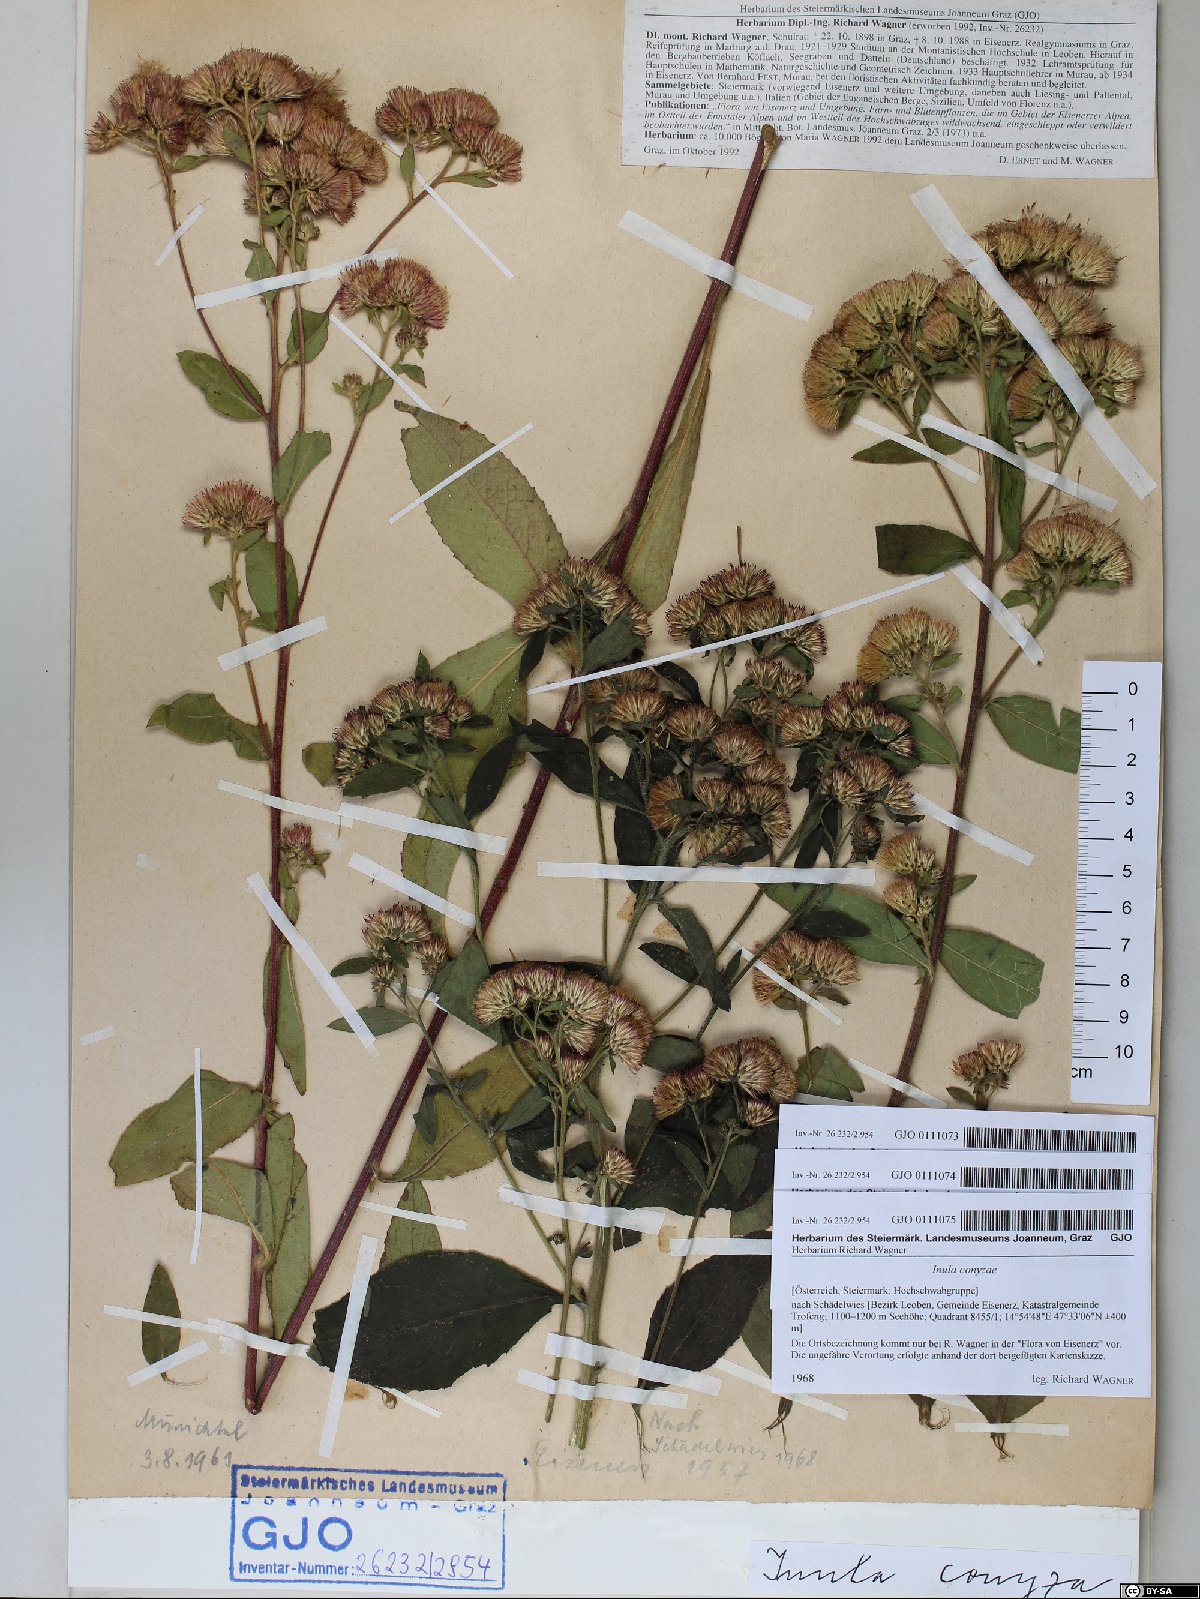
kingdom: Plantae
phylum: Tracheophyta
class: Magnoliopsida
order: Asterales
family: Asteraceae
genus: Pentanema
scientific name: Pentanema squarrosum
